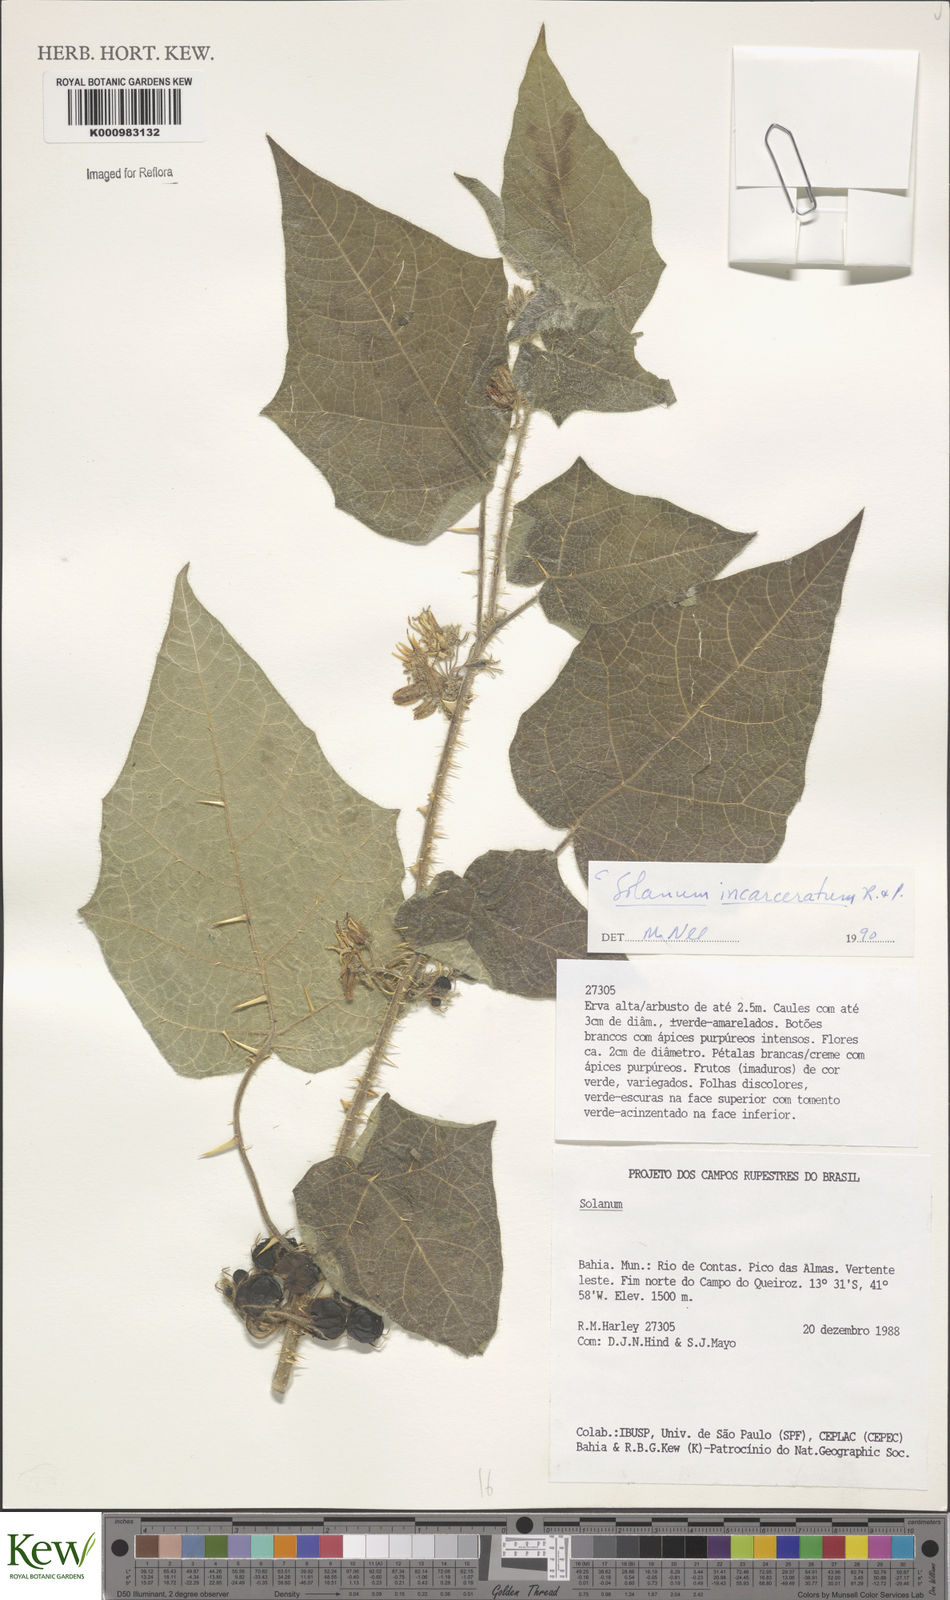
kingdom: Plantae
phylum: Tracheophyta
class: Magnoliopsida
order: Solanales
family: Solanaceae
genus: Solanum
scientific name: Solanum incarceratum
